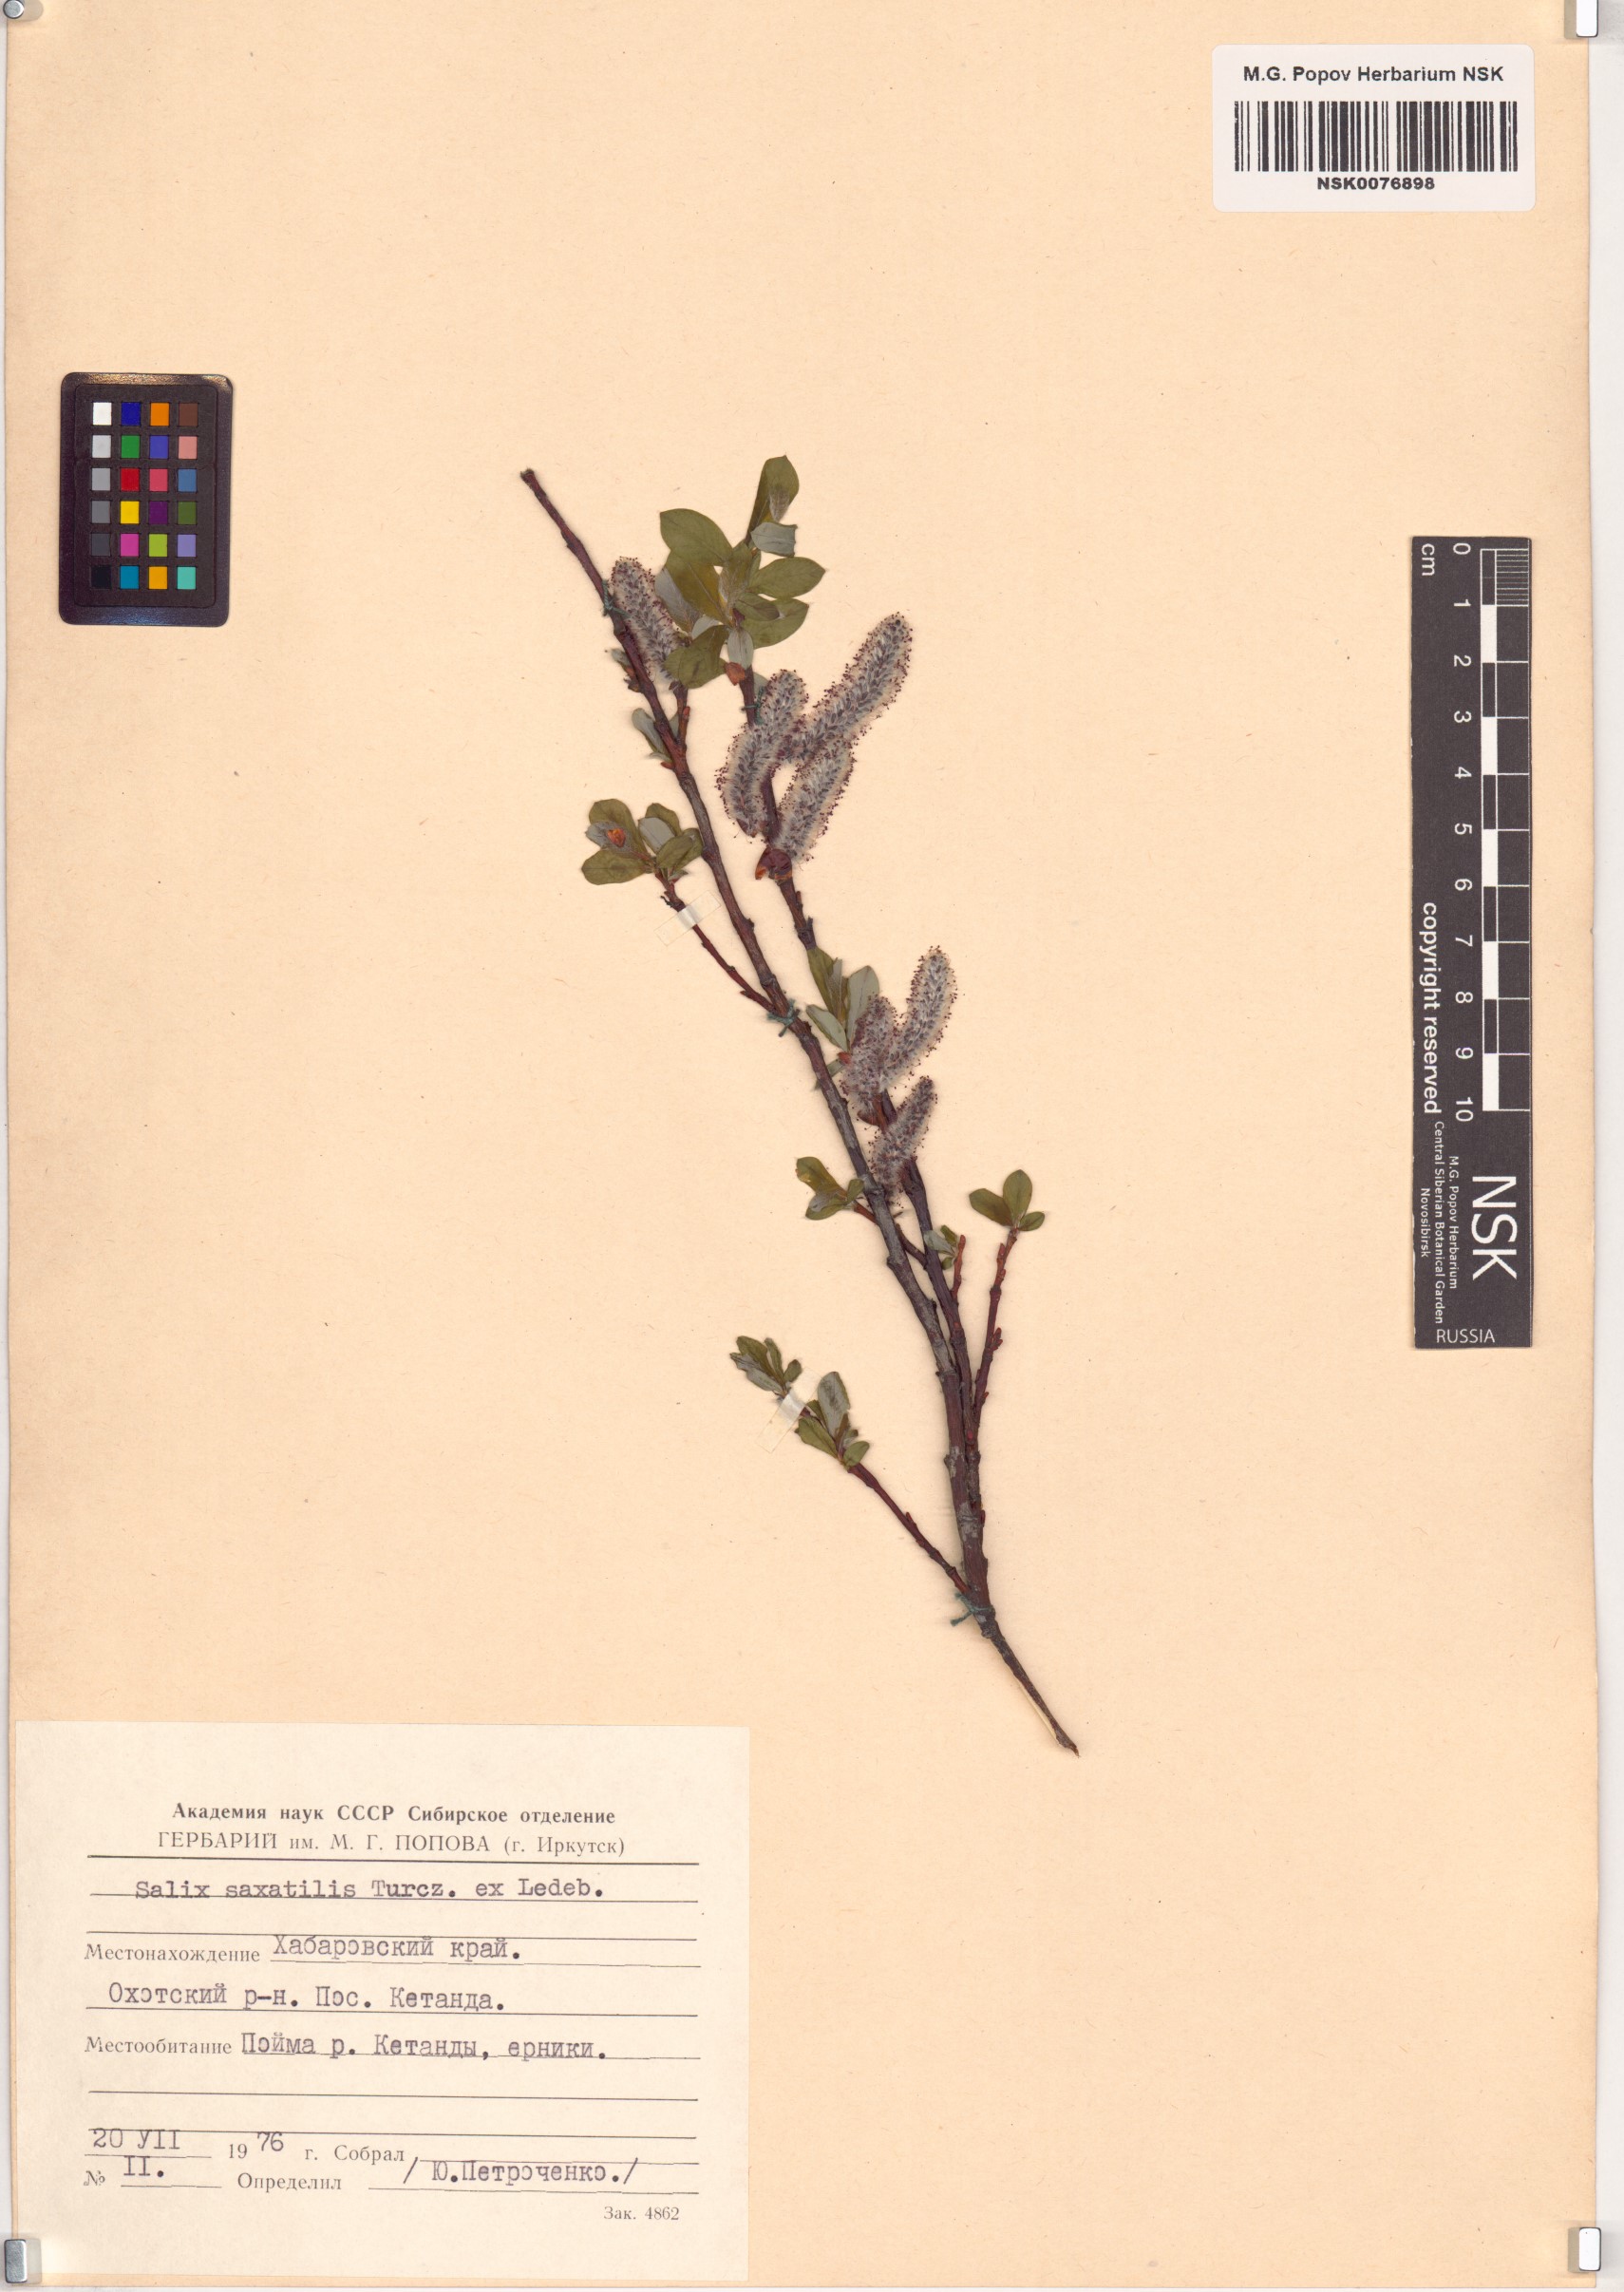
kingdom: Plantae
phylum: Tracheophyta
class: Magnoliopsida
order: Malpighiales
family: Salicaceae
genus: Salix
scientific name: Salix saxatilis
